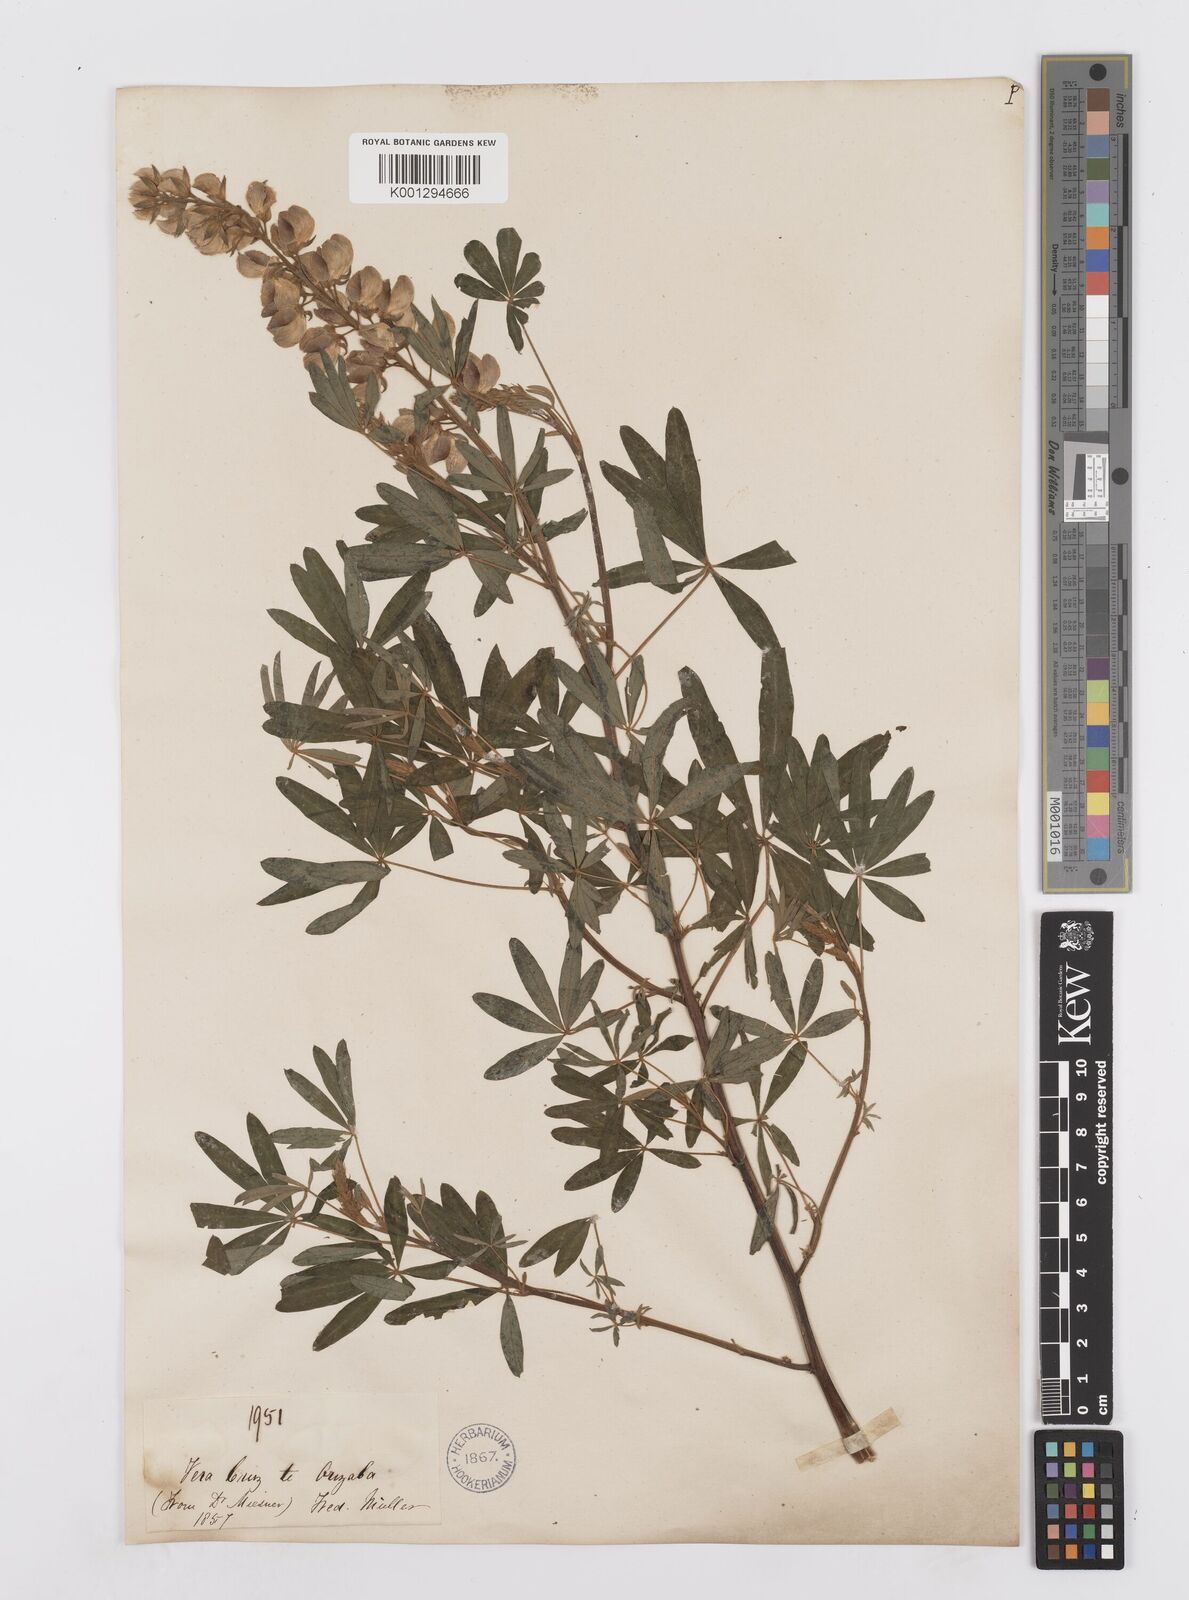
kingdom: Plantae
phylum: Tracheophyta
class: Magnoliopsida
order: Fabales
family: Fabaceae
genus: Lupinus
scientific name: Lupinus elegans
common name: Mexican lupine
